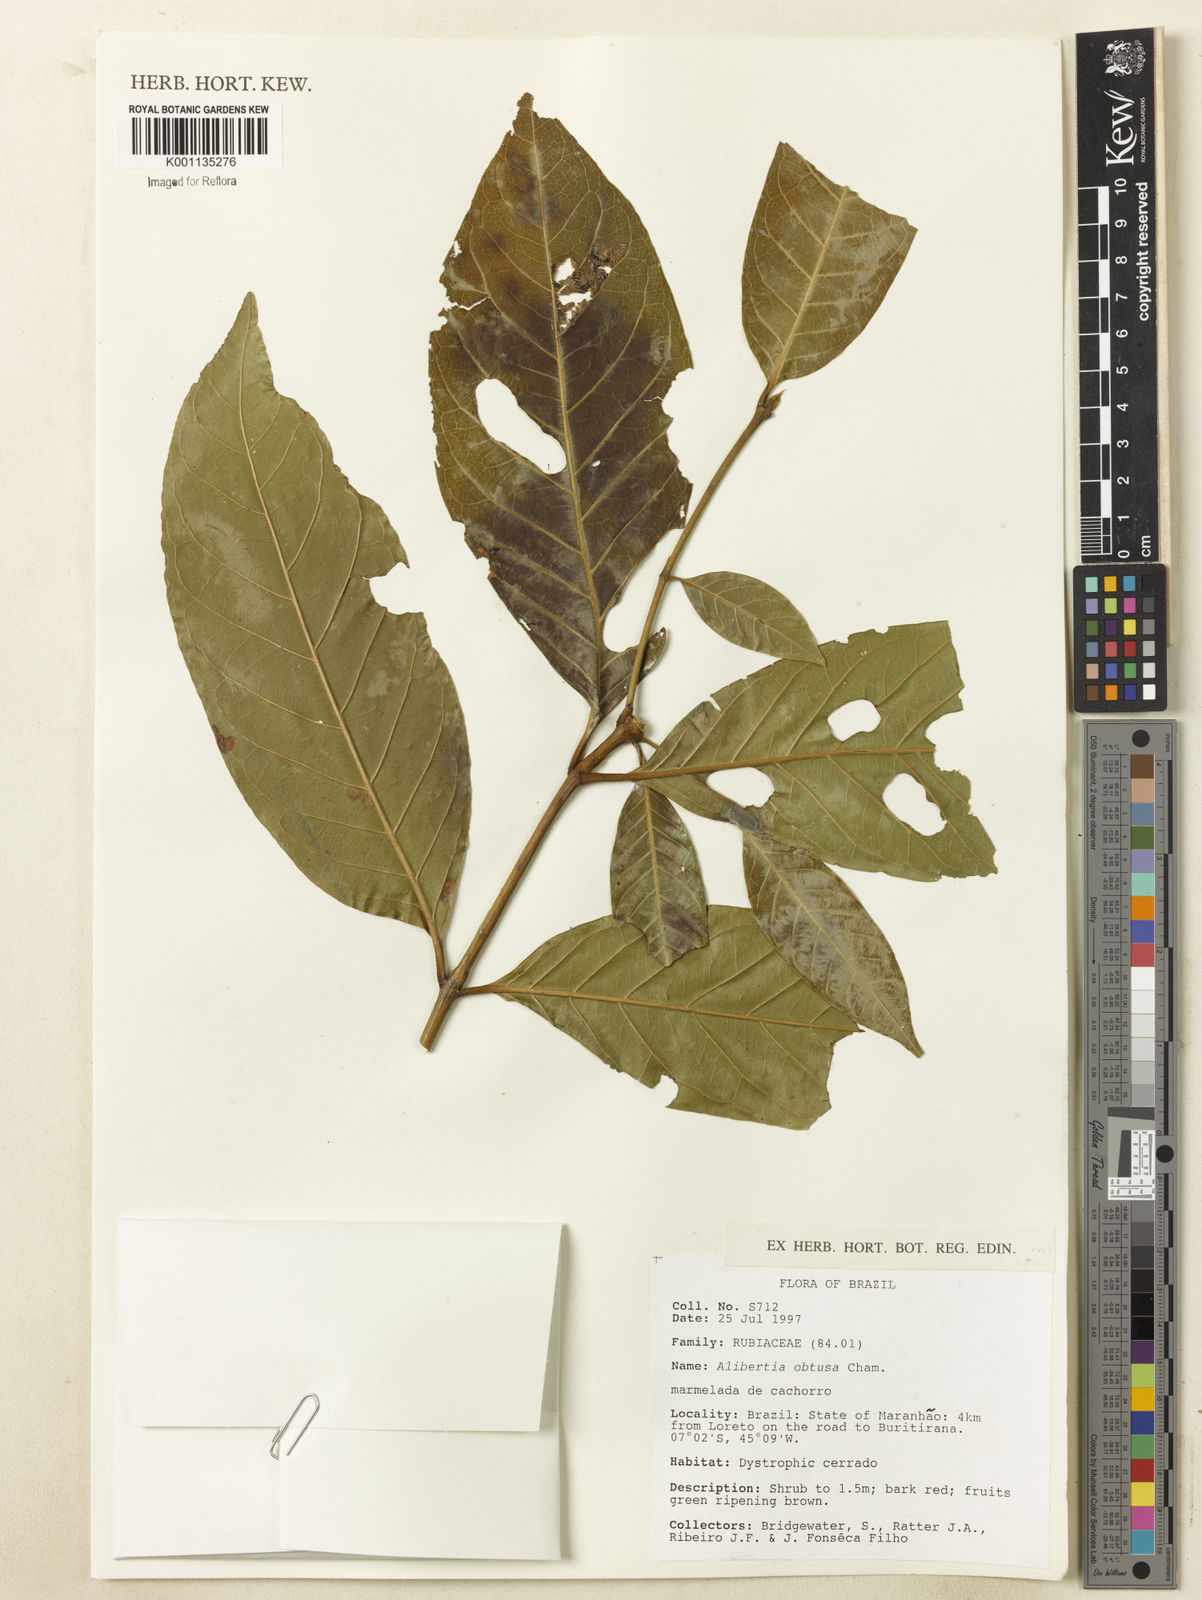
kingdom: Plantae
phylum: Tracheophyta
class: Magnoliopsida
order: Gentianales
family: Rubiaceae
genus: Alibertia
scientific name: Alibertia edulis
